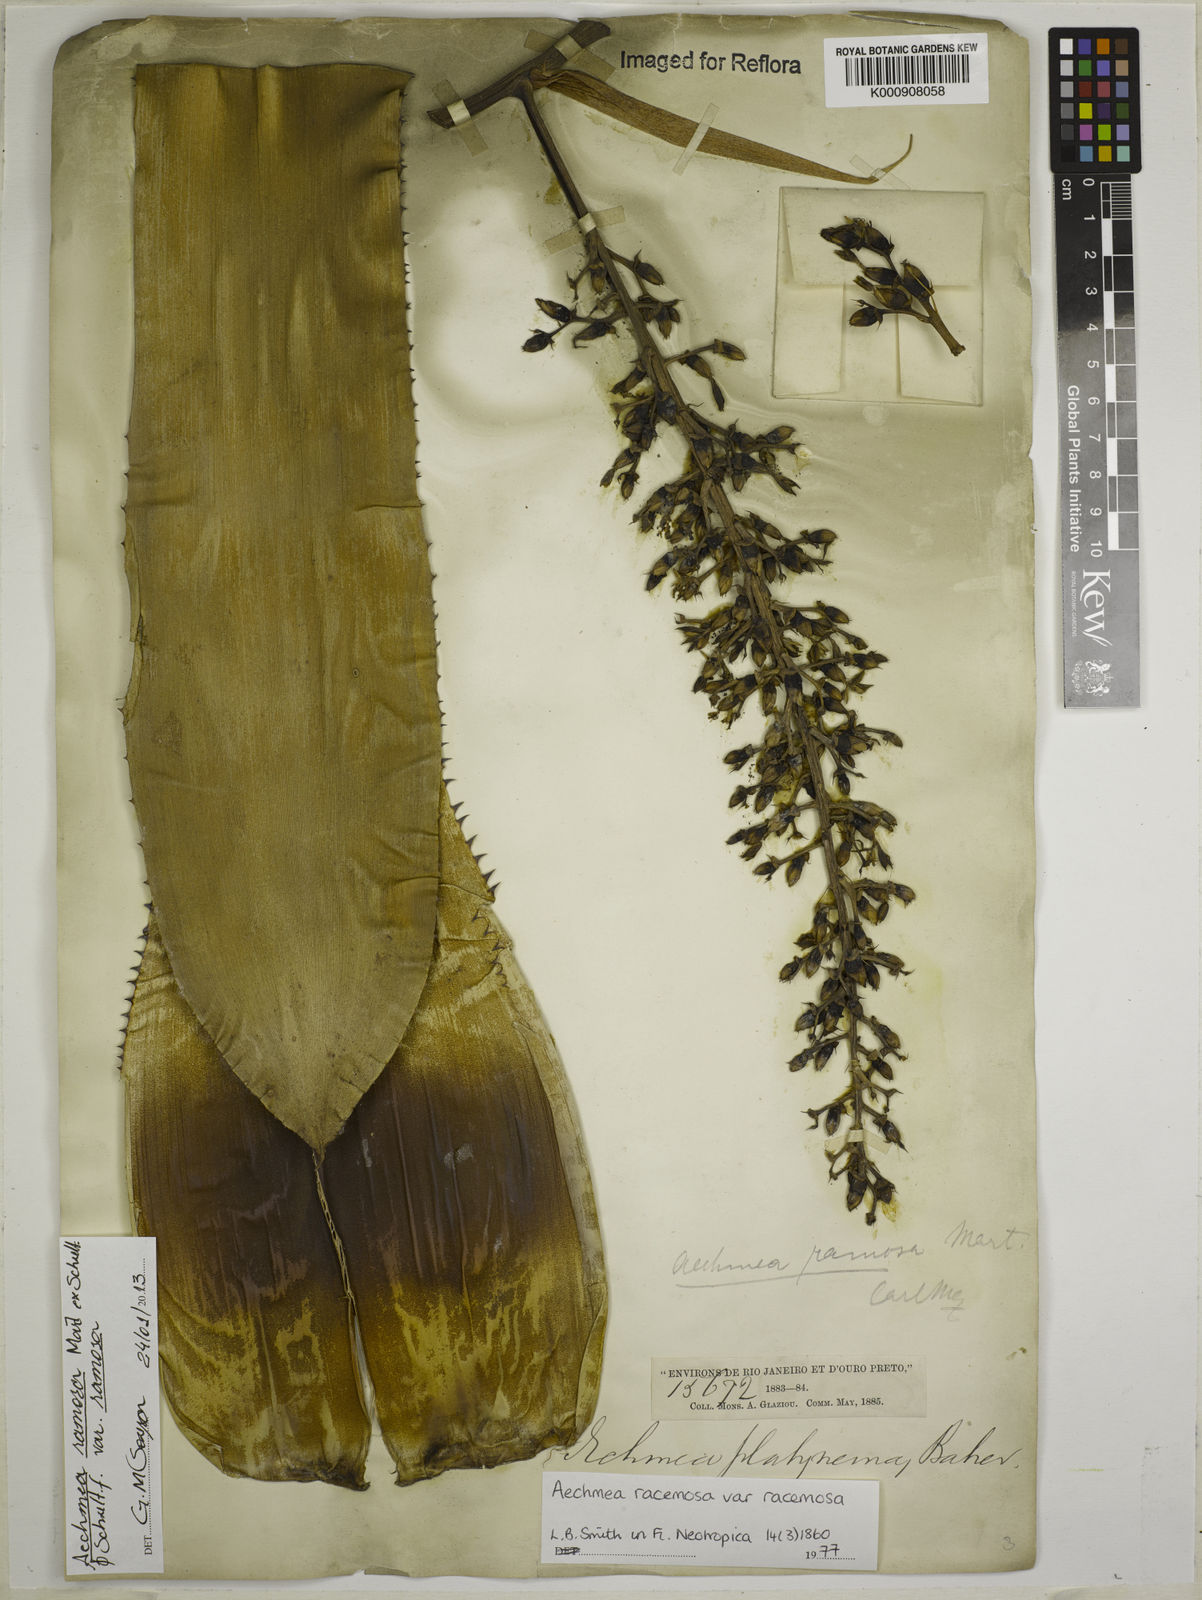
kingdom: Plantae
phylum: Tracheophyta
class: Liliopsida
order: Poales
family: Bromeliaceae
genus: Aechmea
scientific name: Aechmea
